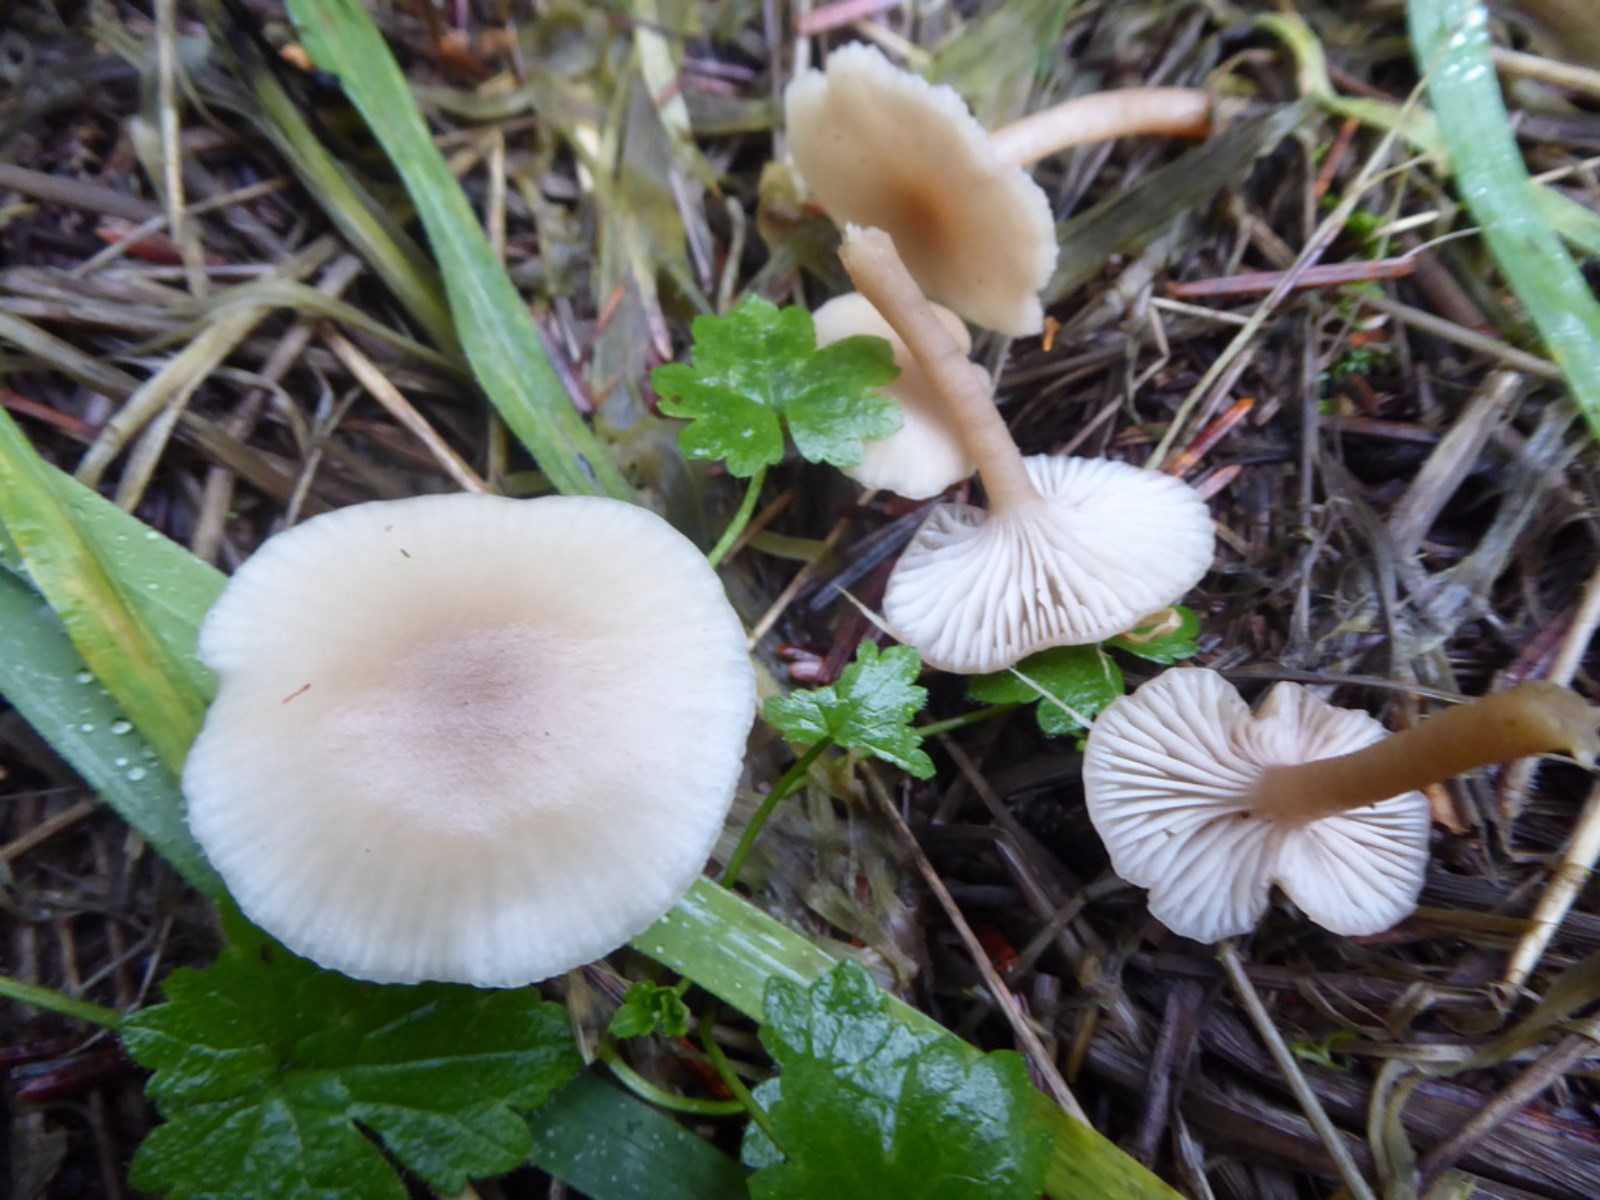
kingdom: Fungi
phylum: Basidiomycota
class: Agaricomycetes
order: Agaricales
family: Tricholomataceae
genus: Clitocybe
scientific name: Clitocybe fragrans
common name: vellugtende tragthat
